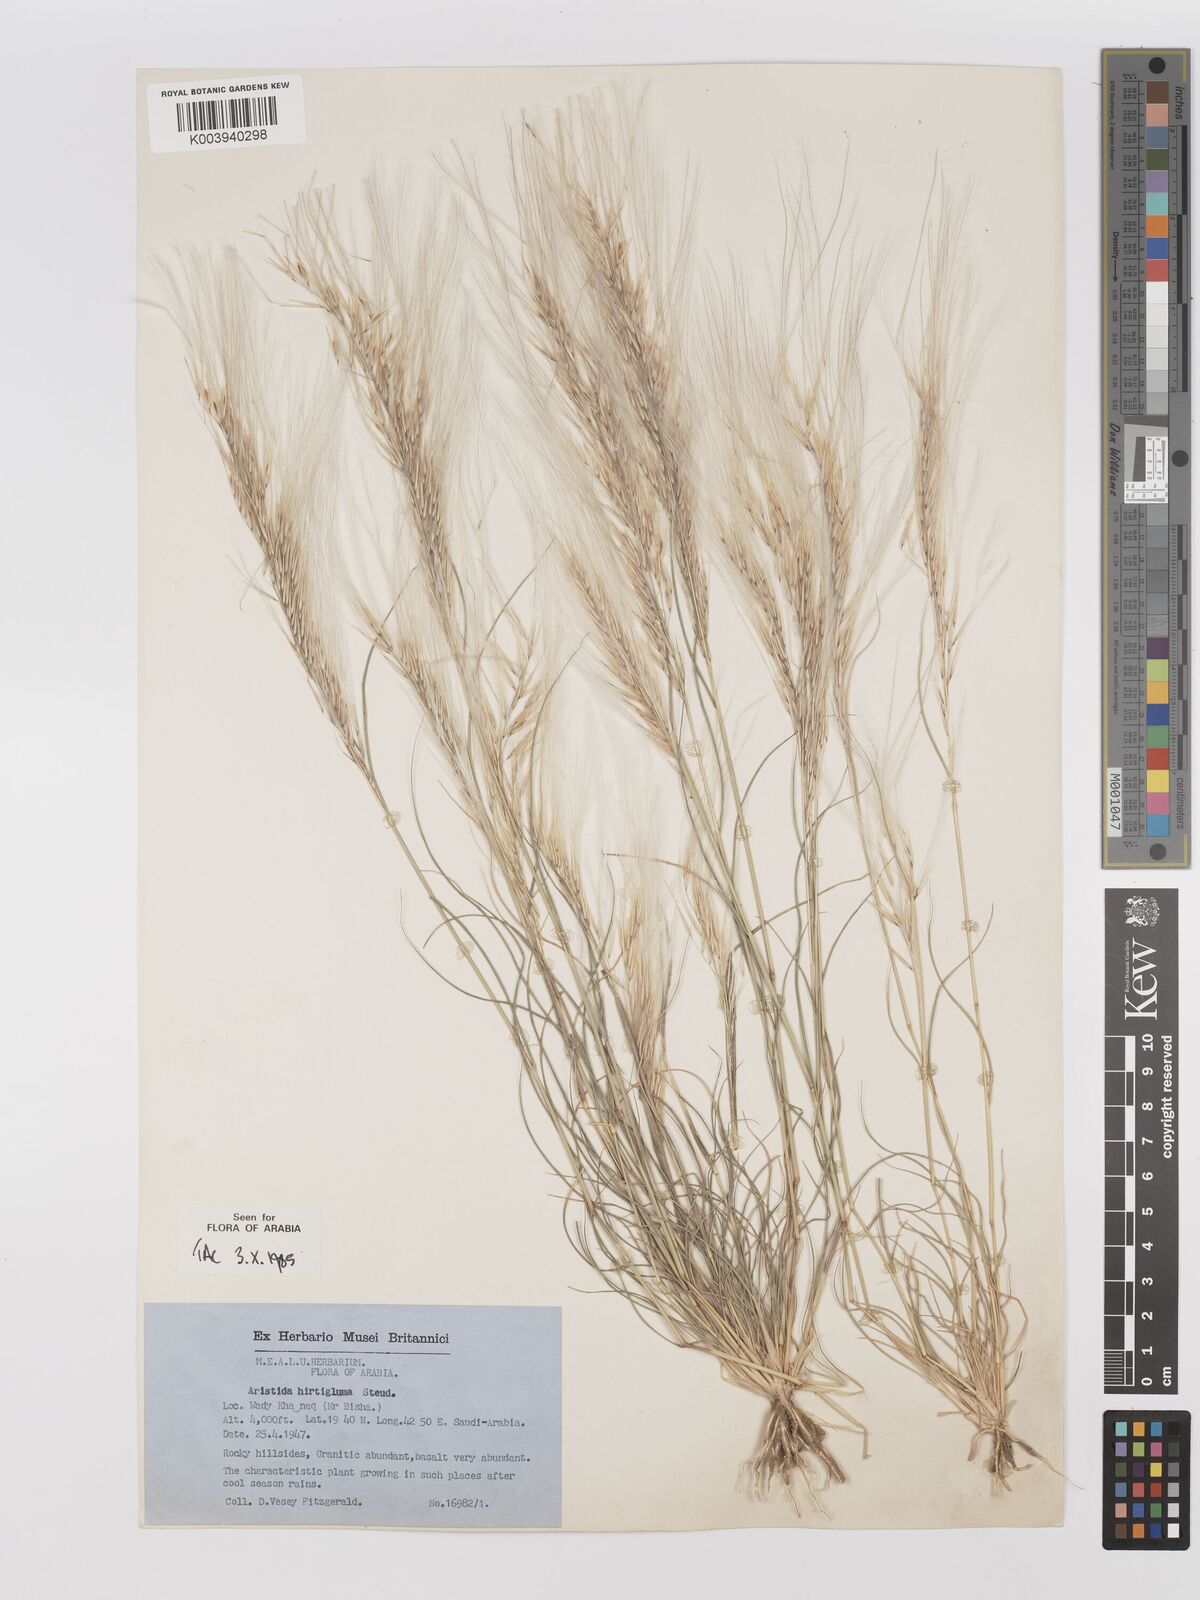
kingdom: Plantae
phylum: Tracheophyta
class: Liliopsida
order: Poales
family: Poaceae
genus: Stipagrostis
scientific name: Stipagrostis hirtigluma
